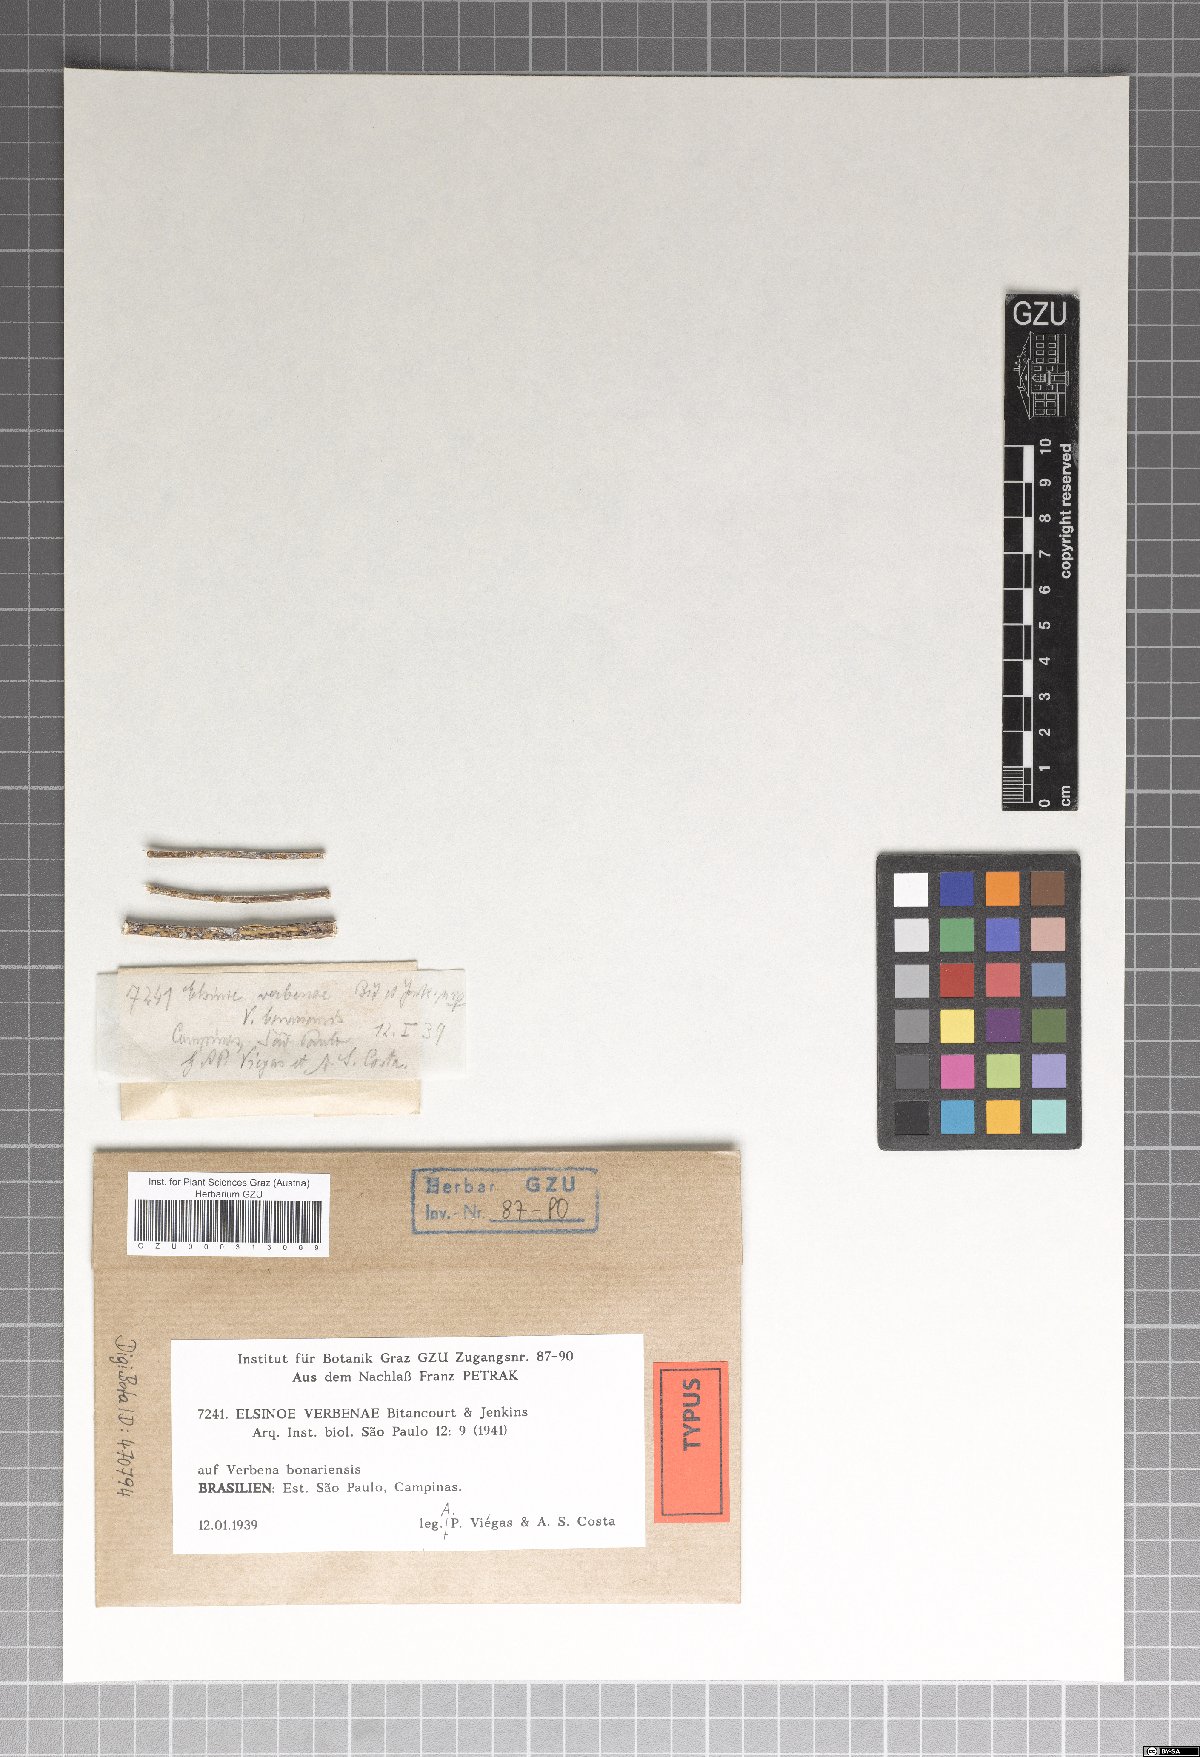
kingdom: Fungi
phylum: Ascomycota
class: Dothideomycetes
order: Myriangiales
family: Elsinoaceae
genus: Elsinoe
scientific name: Elsinoe verbenae
